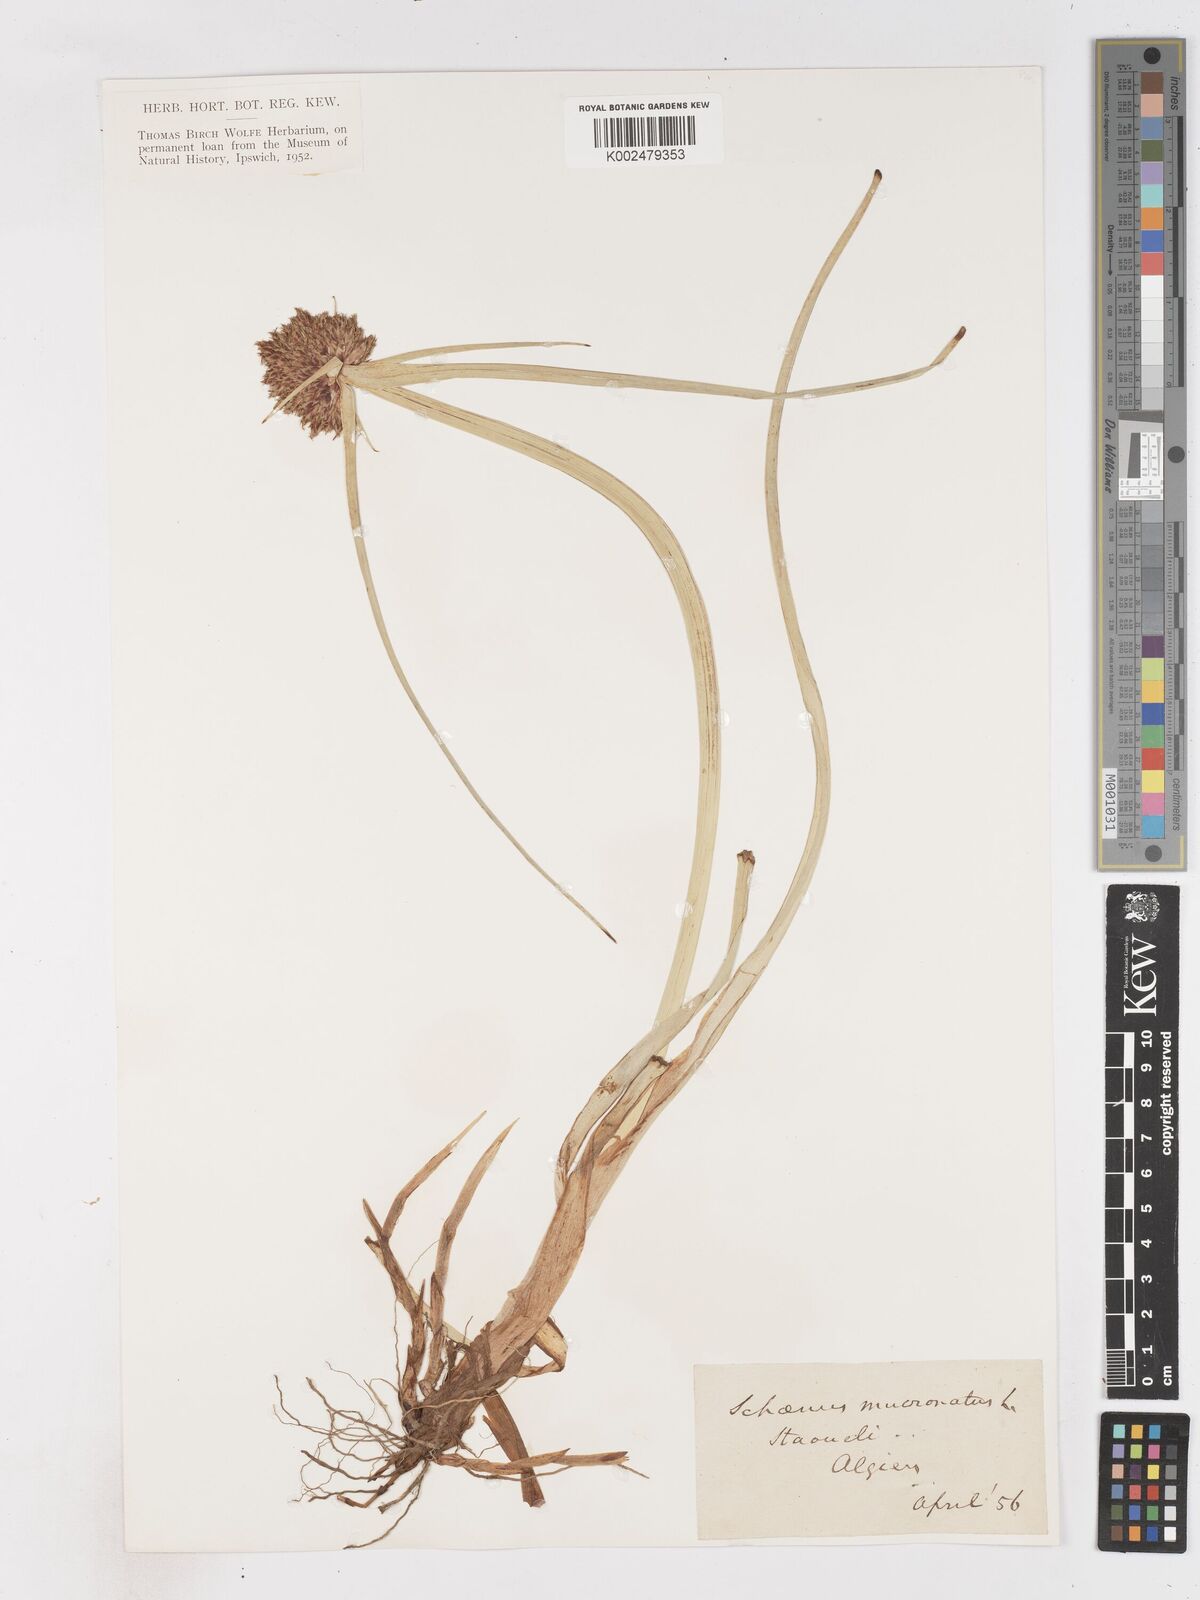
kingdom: Plantae
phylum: Tracheophyta
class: Liliopsida
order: Poales
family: Cyperaceae
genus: Cyperus
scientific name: Cyperus capitatus
